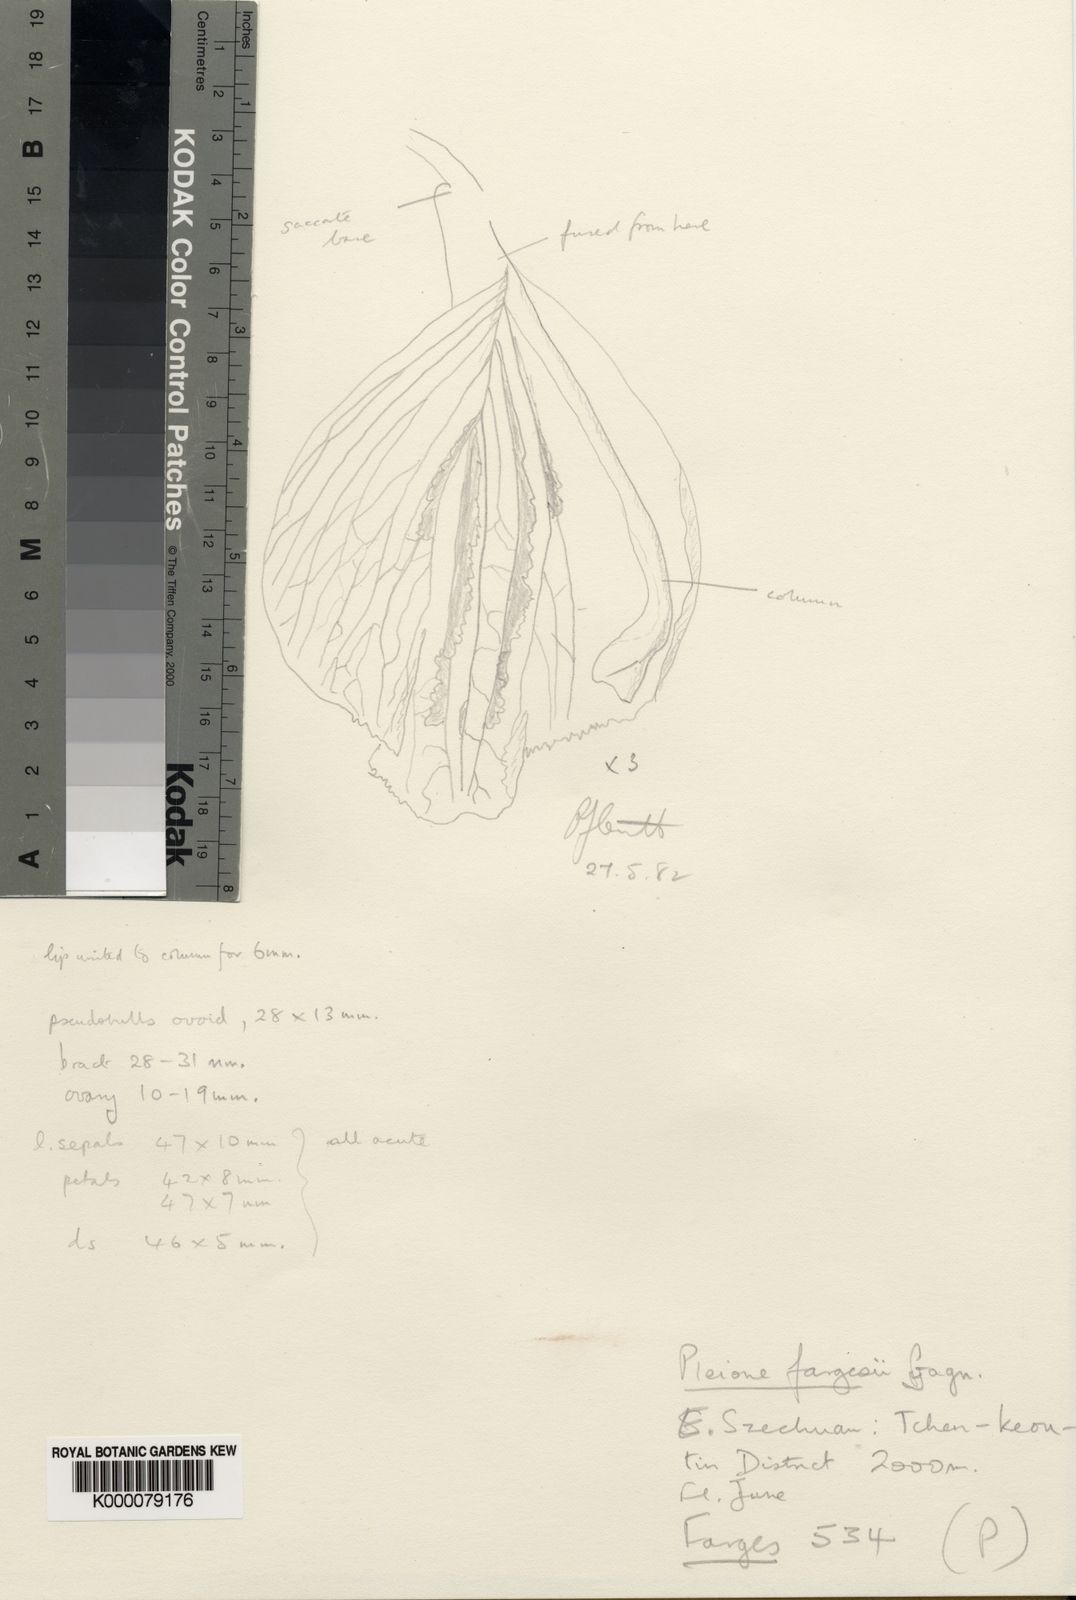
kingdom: Plantae
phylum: Tracheophyta
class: Liliopsida
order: Asparagales
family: Orchidaceae
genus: Pleione
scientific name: Pleione bulbocodioides
